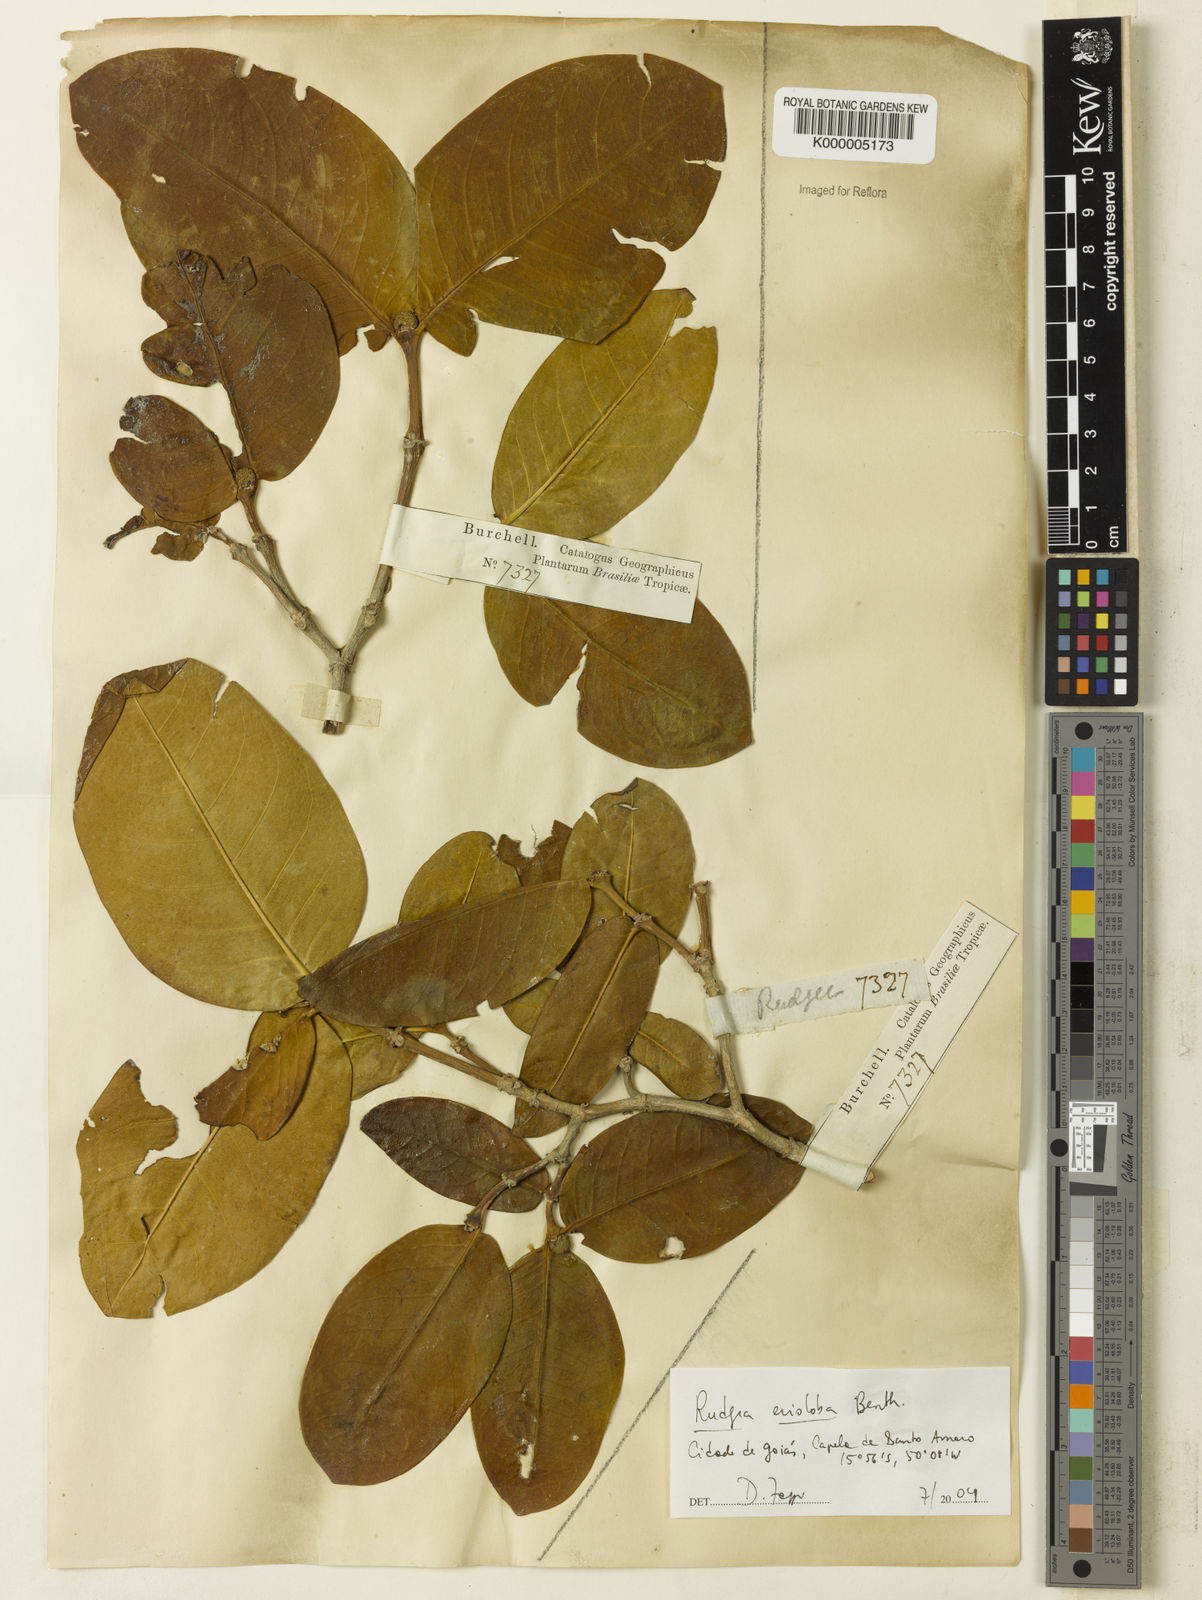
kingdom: Plantae
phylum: Tracheophyta
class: Magnoliopsida
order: Gentianales
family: Rubiaceae
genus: Rudgea
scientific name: Rudgea erioloba
